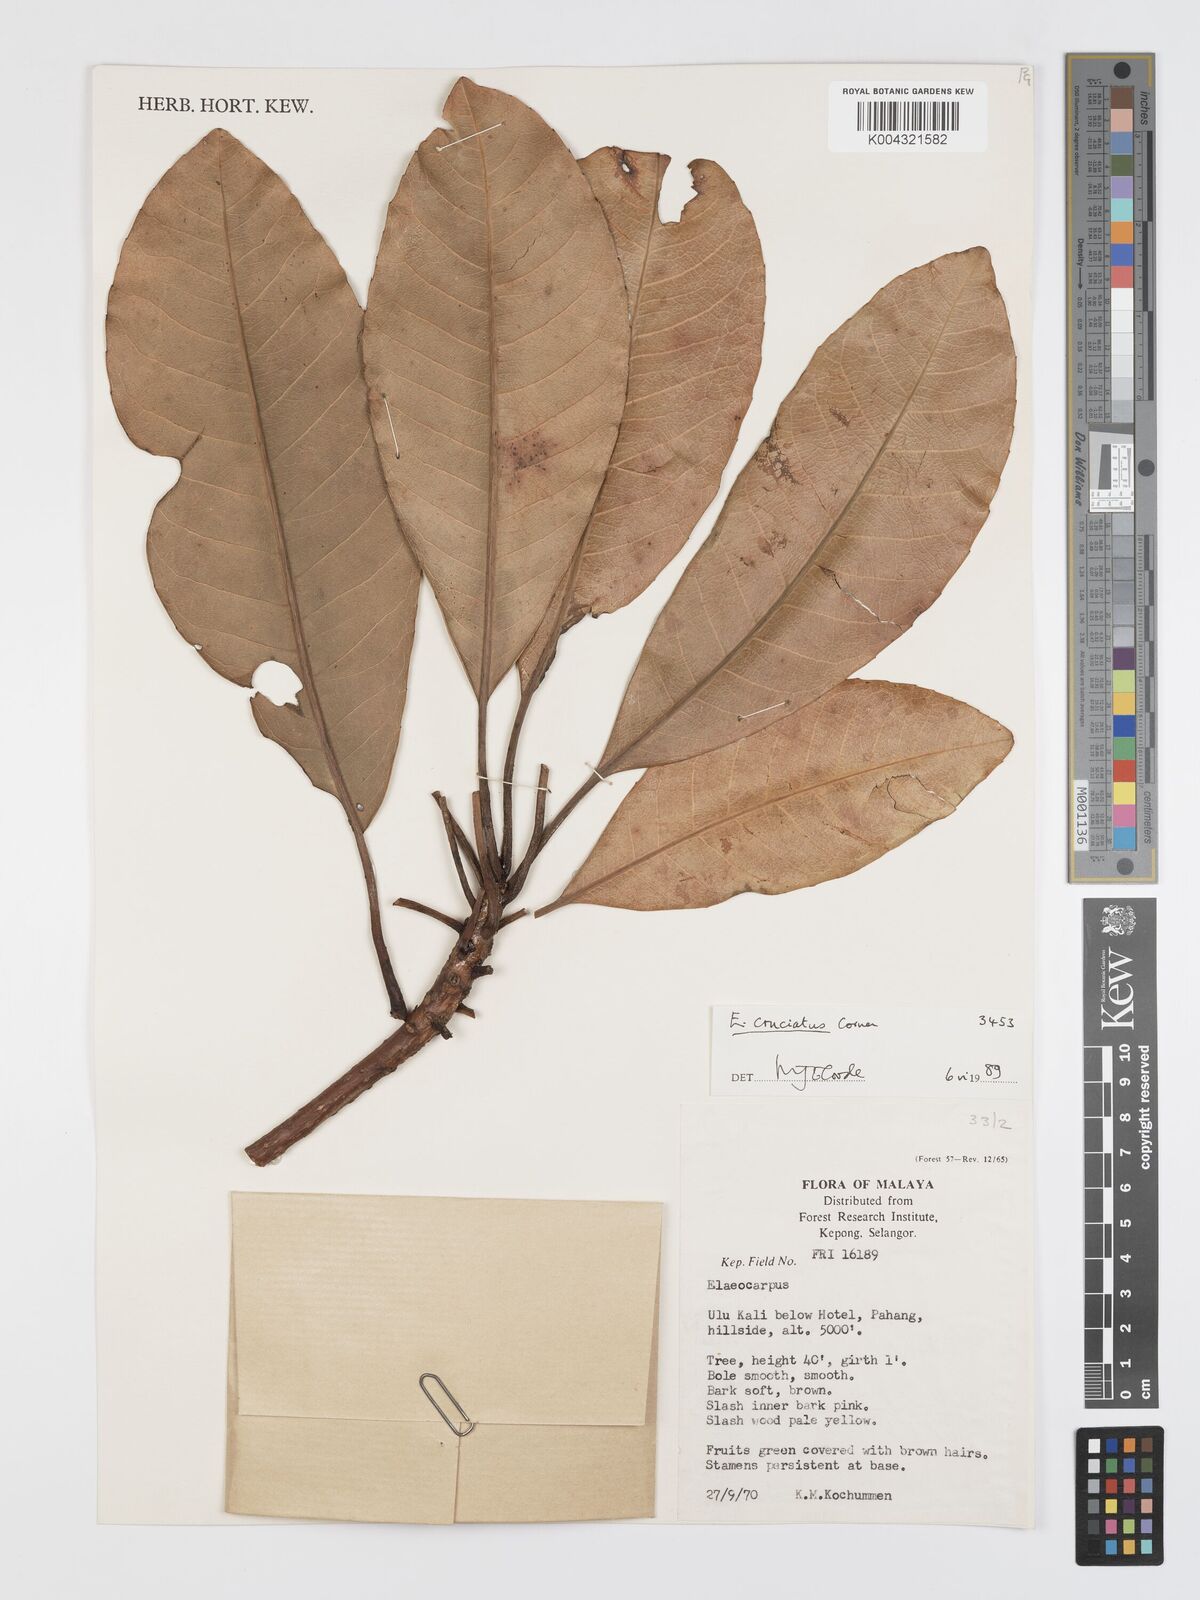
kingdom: Plantae
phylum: Tracheophyta
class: Magnoliopsida
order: Oxalidales
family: Elaeocarpaceae
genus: Elaeocarpus
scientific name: Elaeocarpus cruciatus
